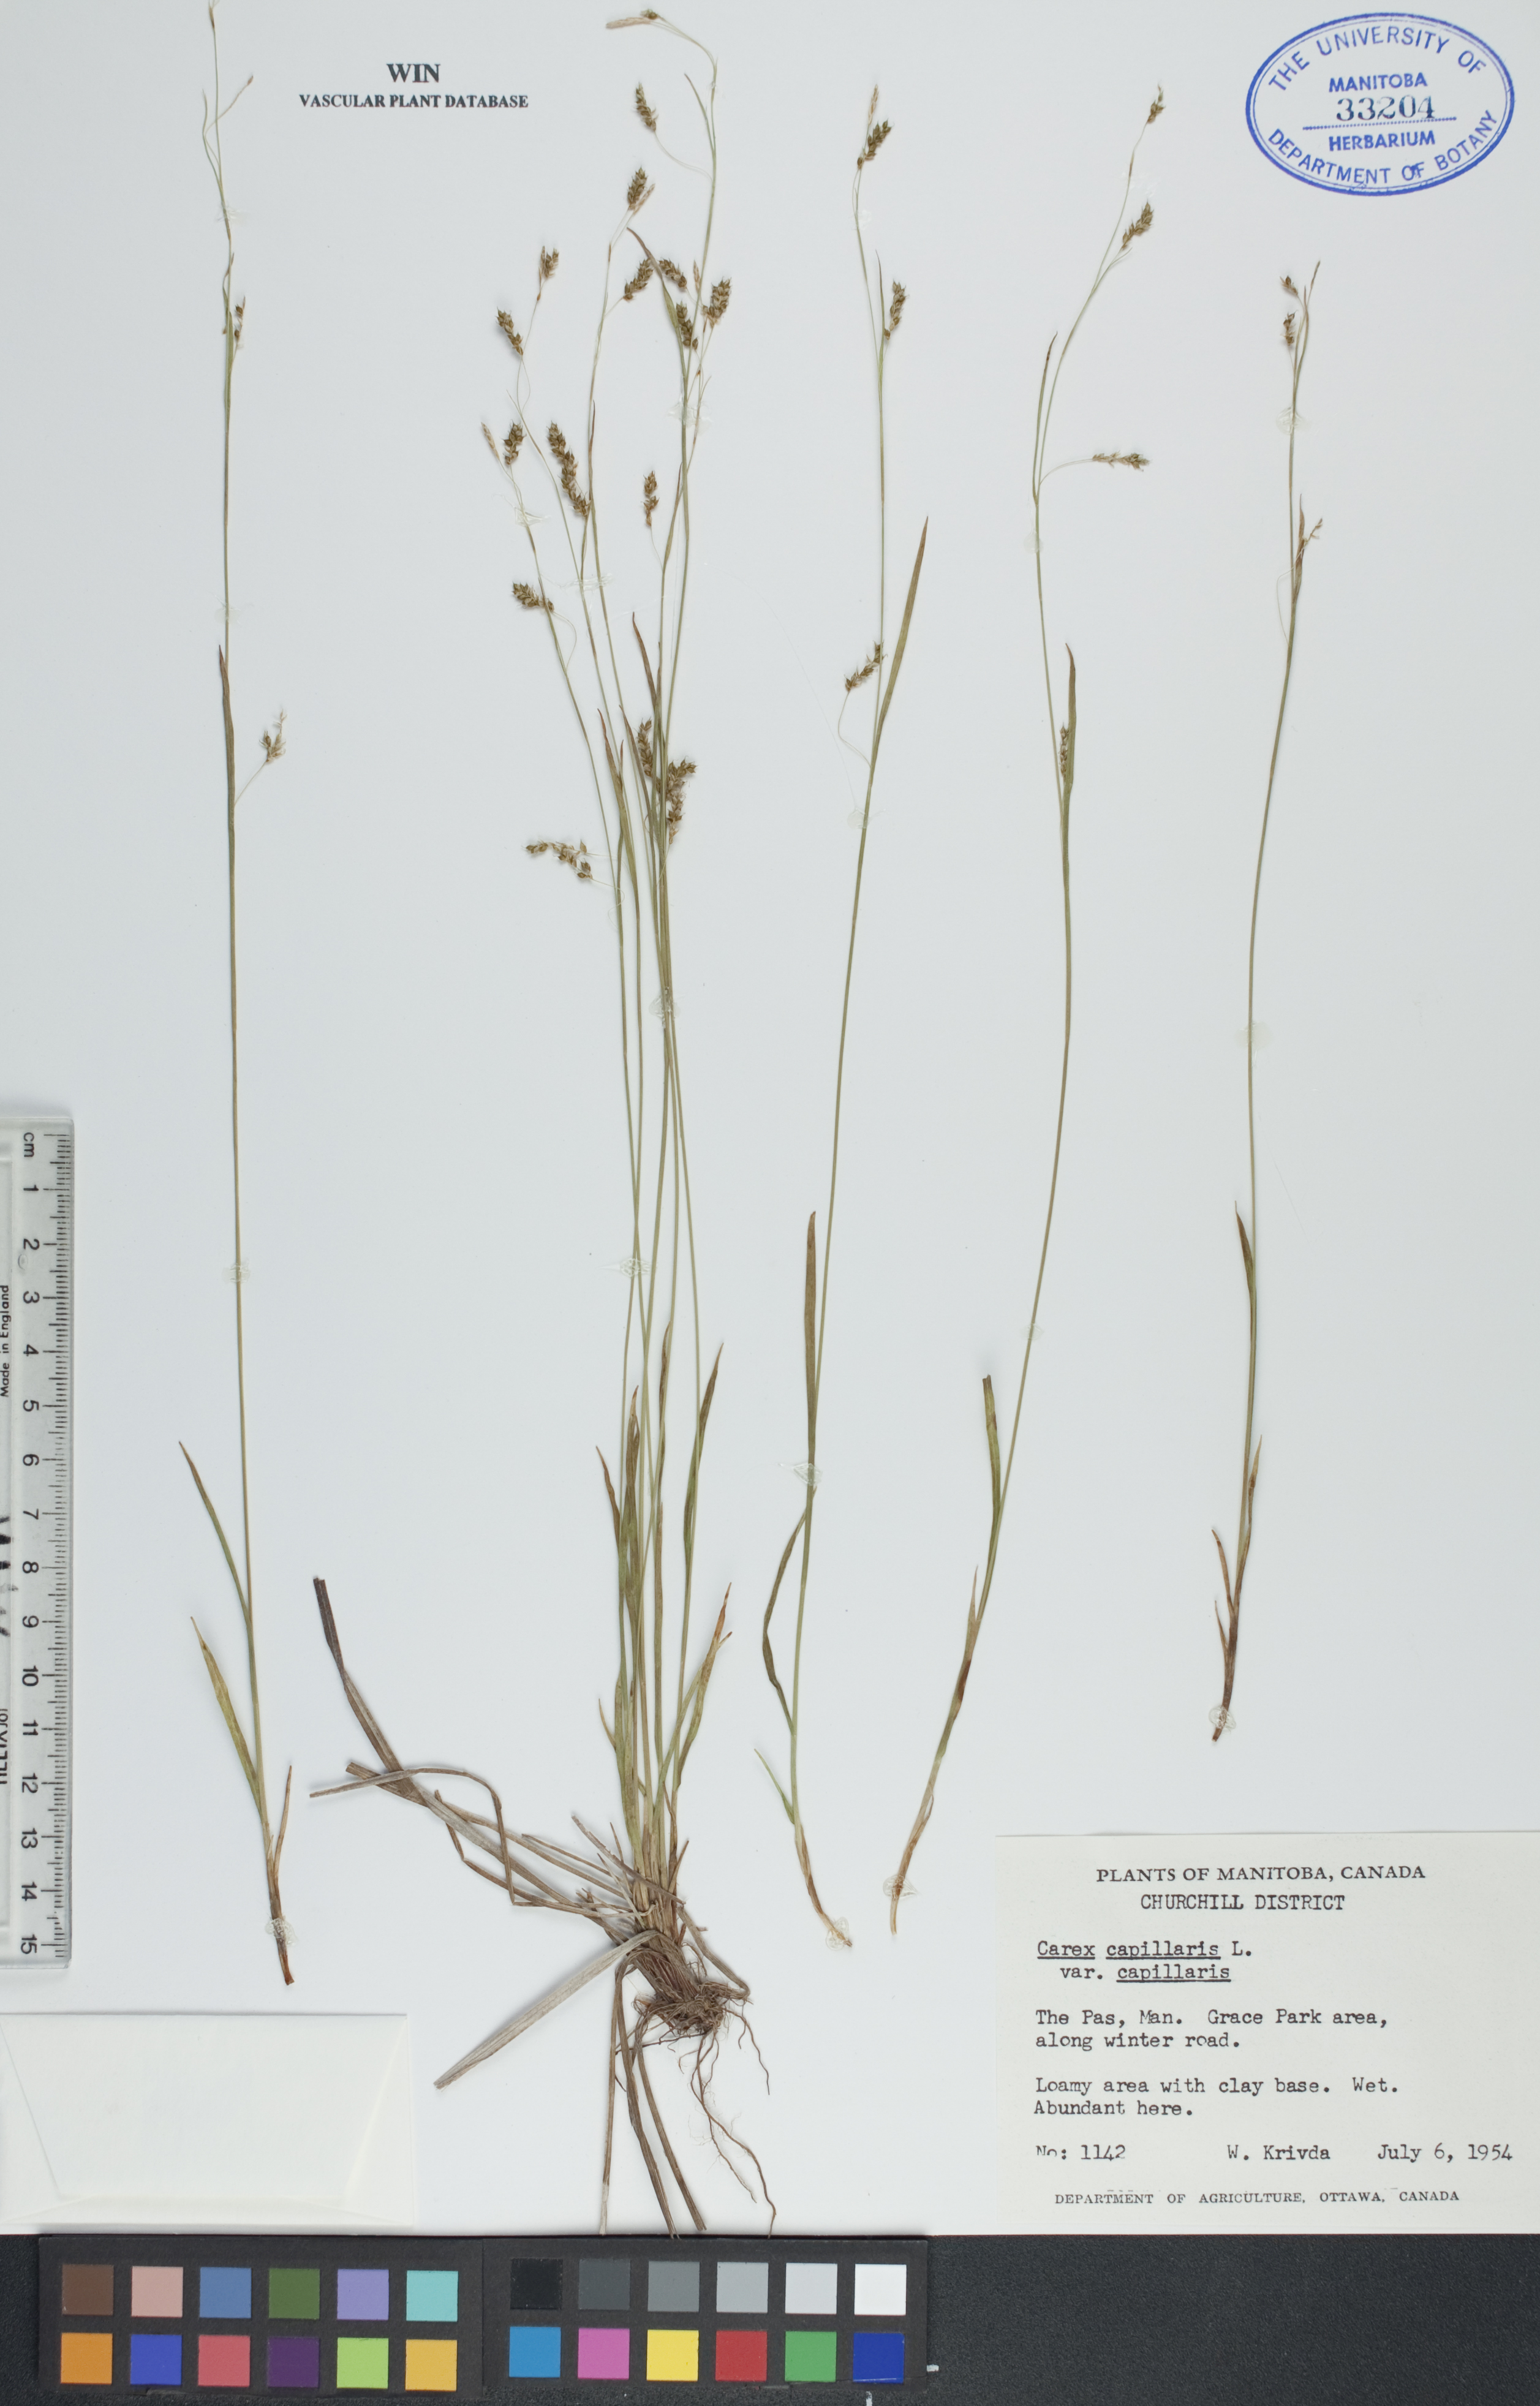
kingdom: Plantae
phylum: Tracheophyta
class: Liliopsida
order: Poales
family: Cyperaceae
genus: Carex
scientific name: Carex capillaris
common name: Hair sedge
